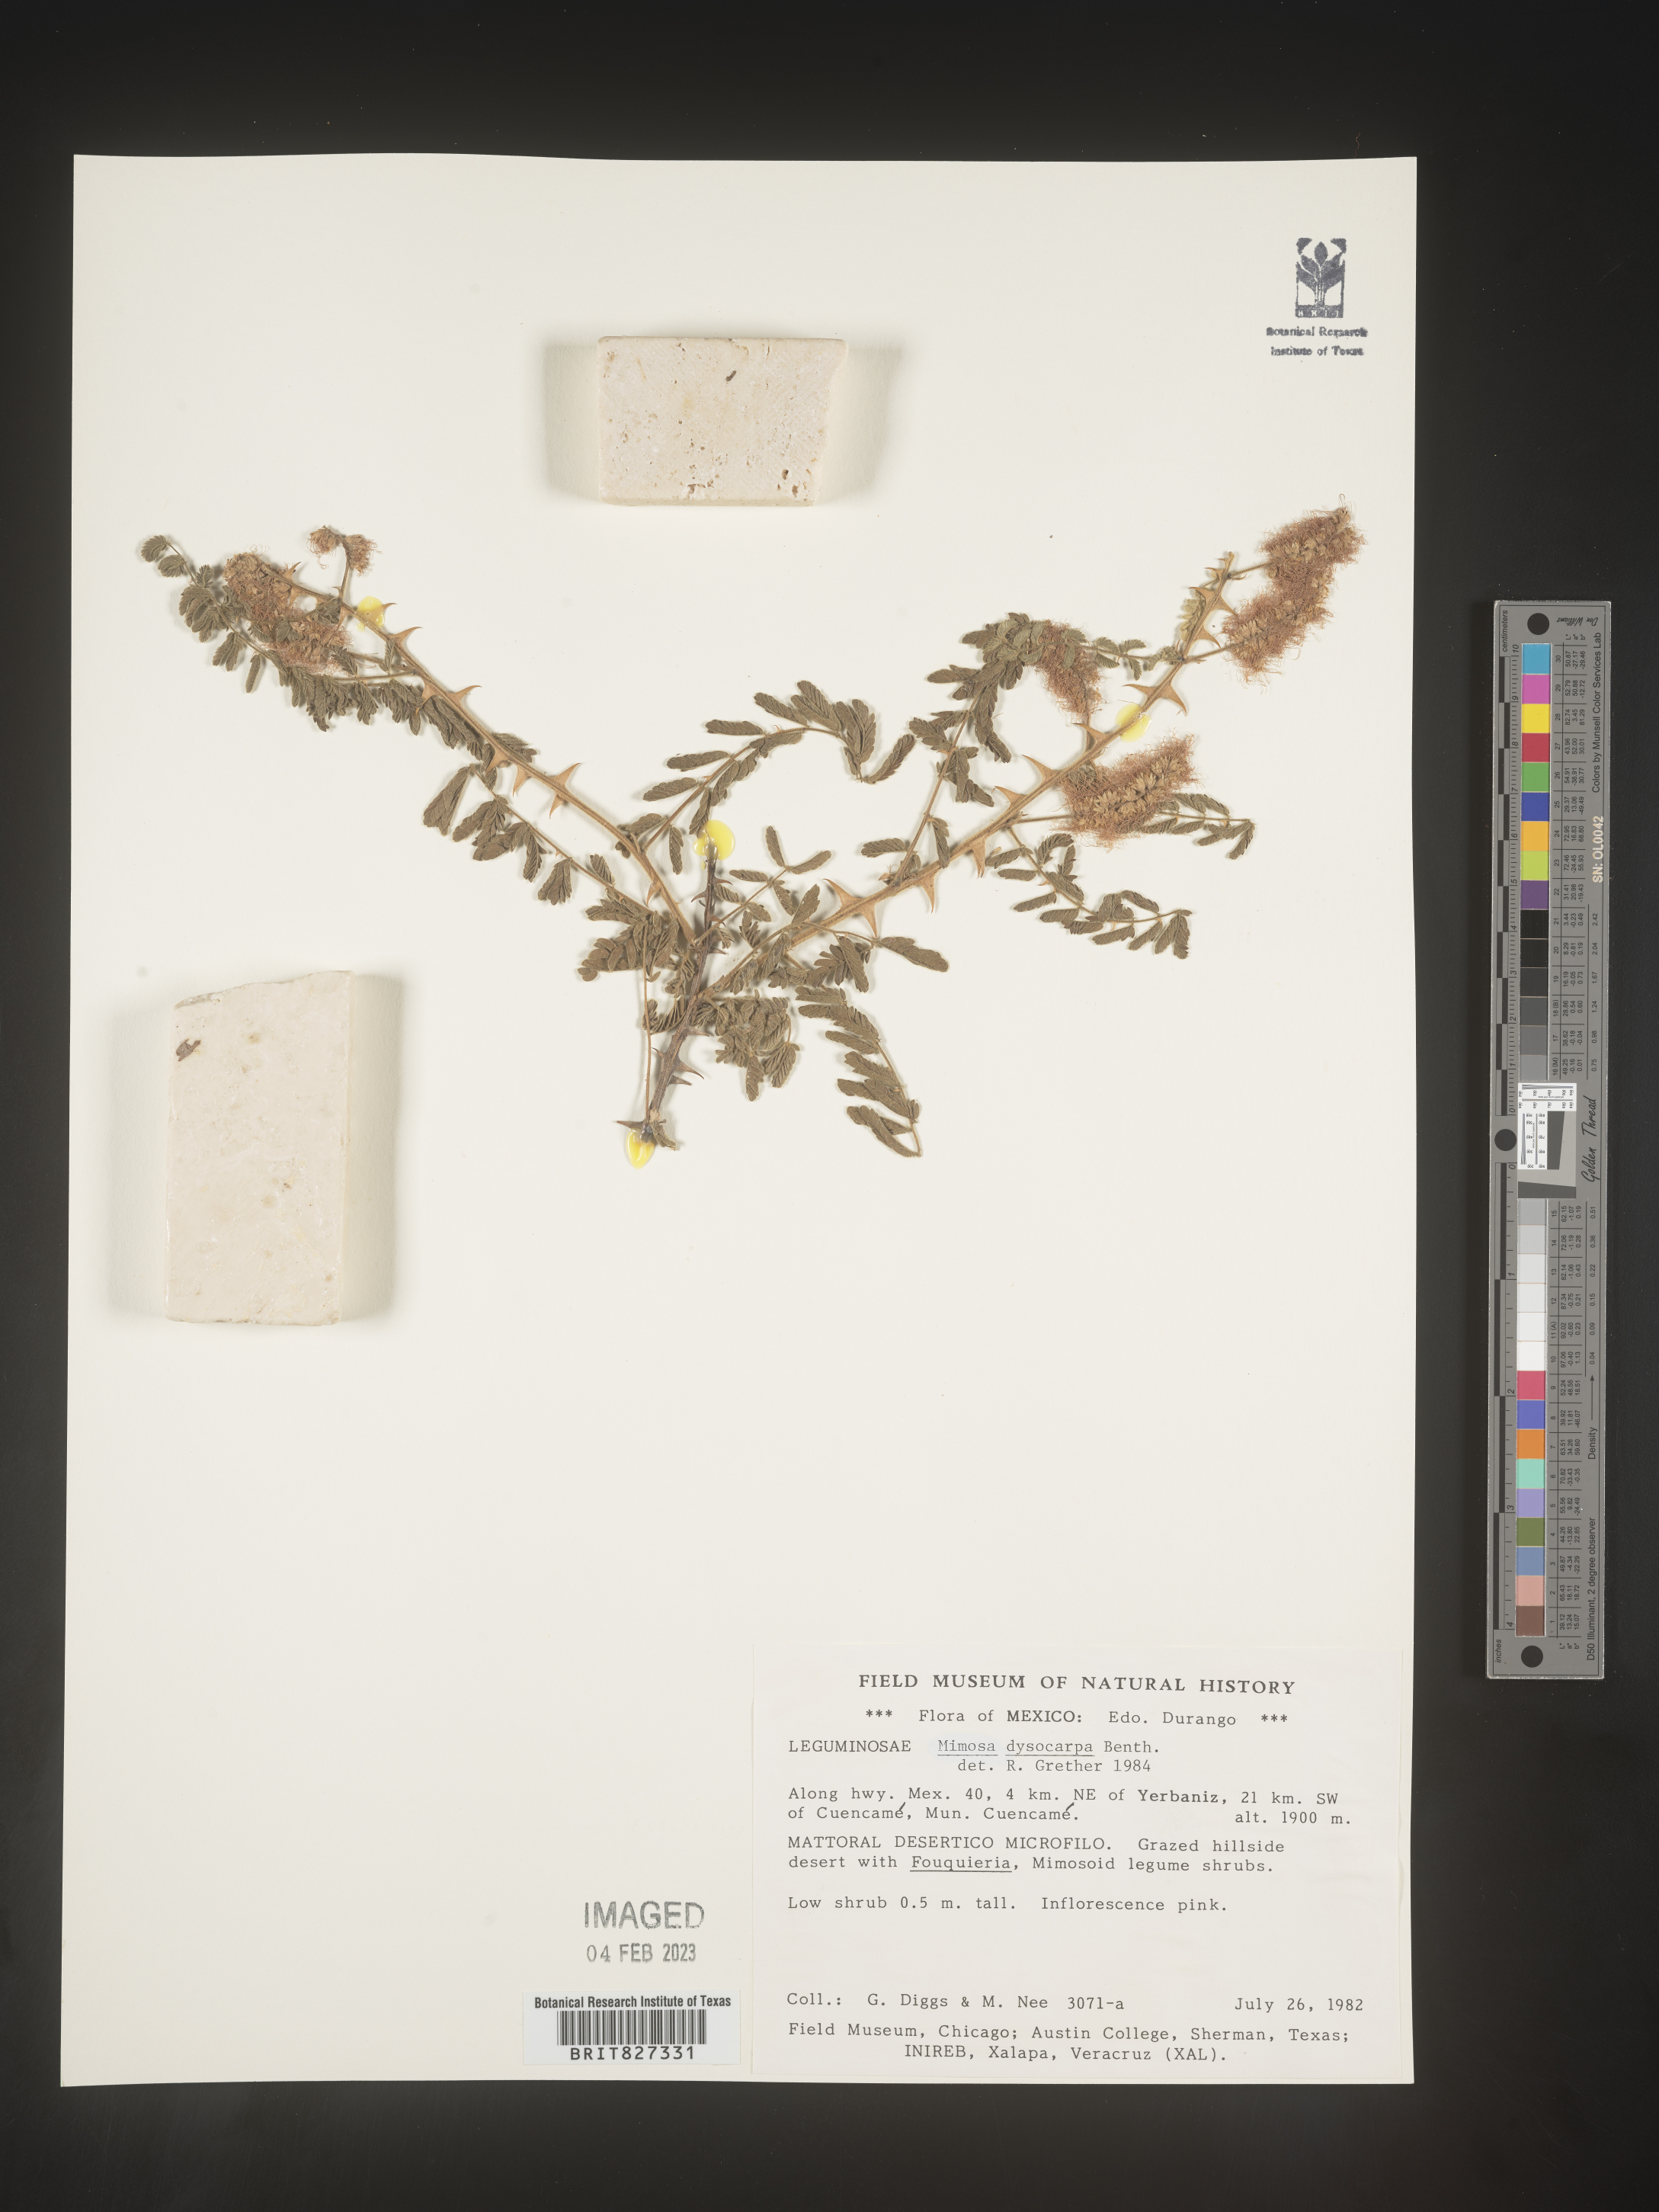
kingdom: Plantae
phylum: Tracheophyta
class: Magnoliopsida
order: Fabales
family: Fabaceae
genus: Mimosa
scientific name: Mimosa
